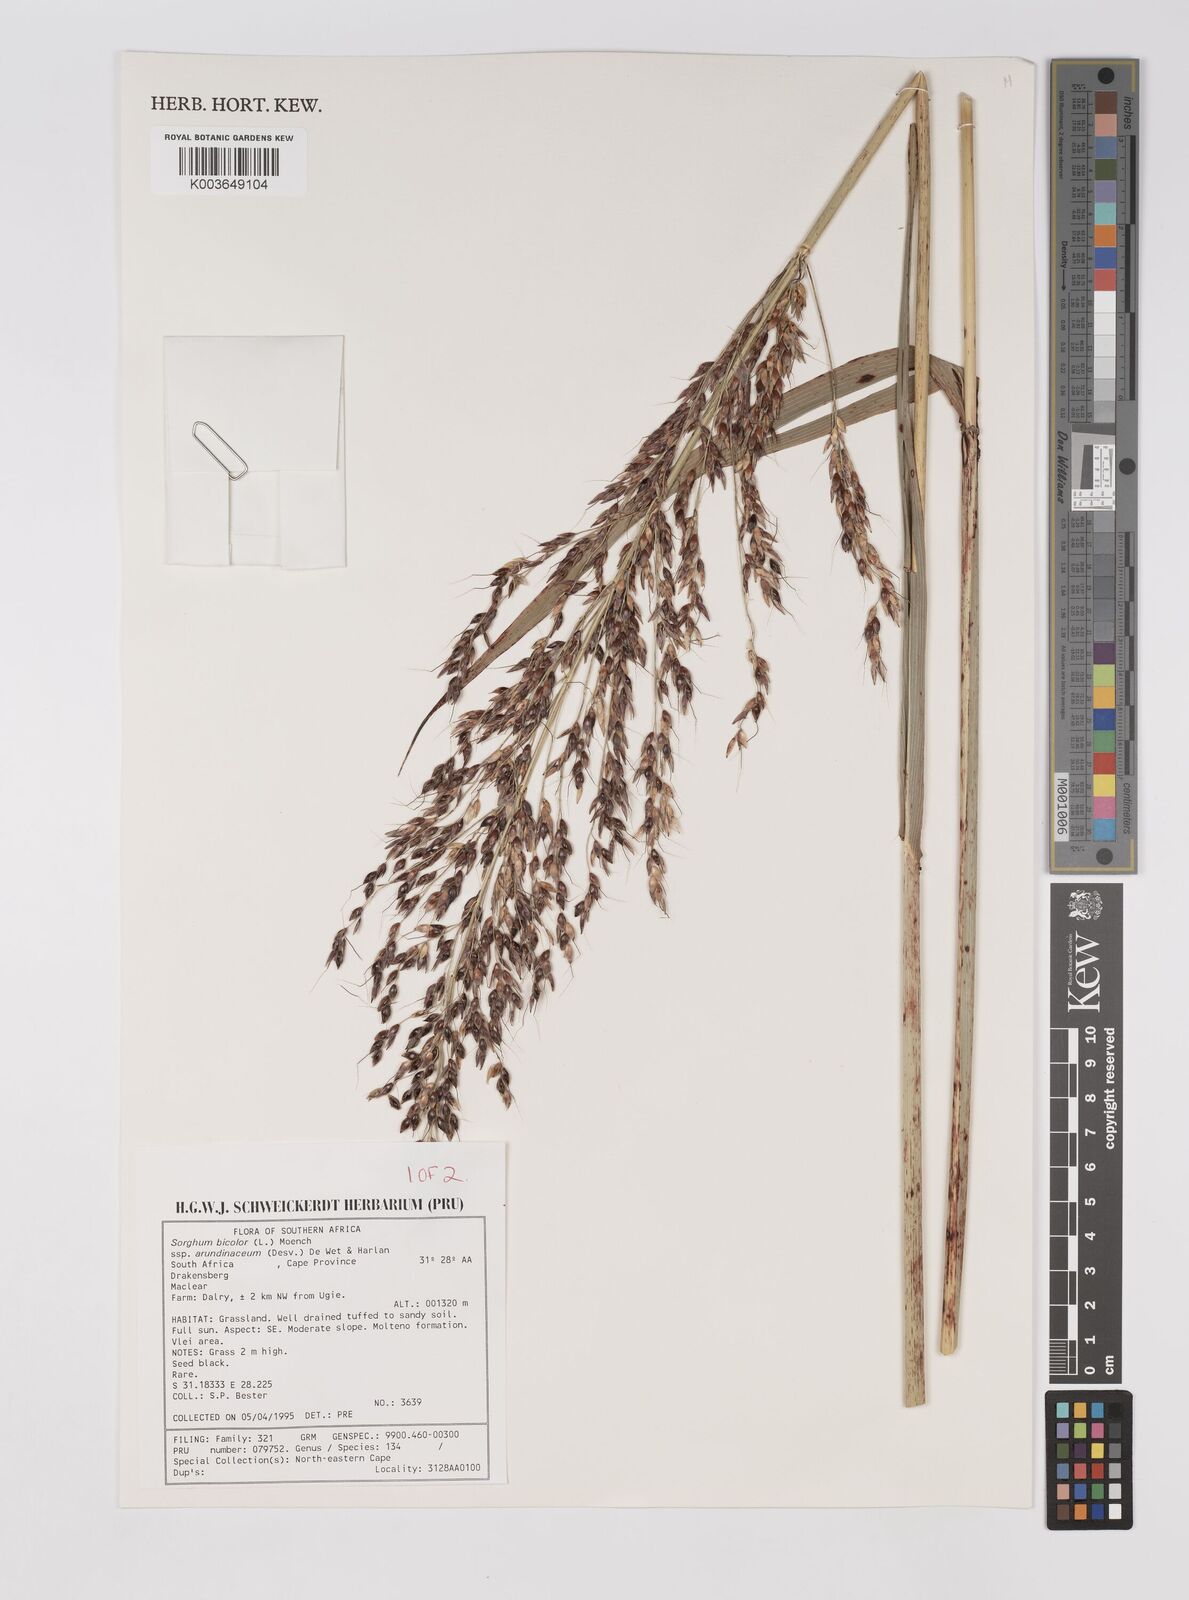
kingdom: Plantae
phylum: Tracheophyta
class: Liliopsida
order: Poales
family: Poaceae
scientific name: Poaceae
